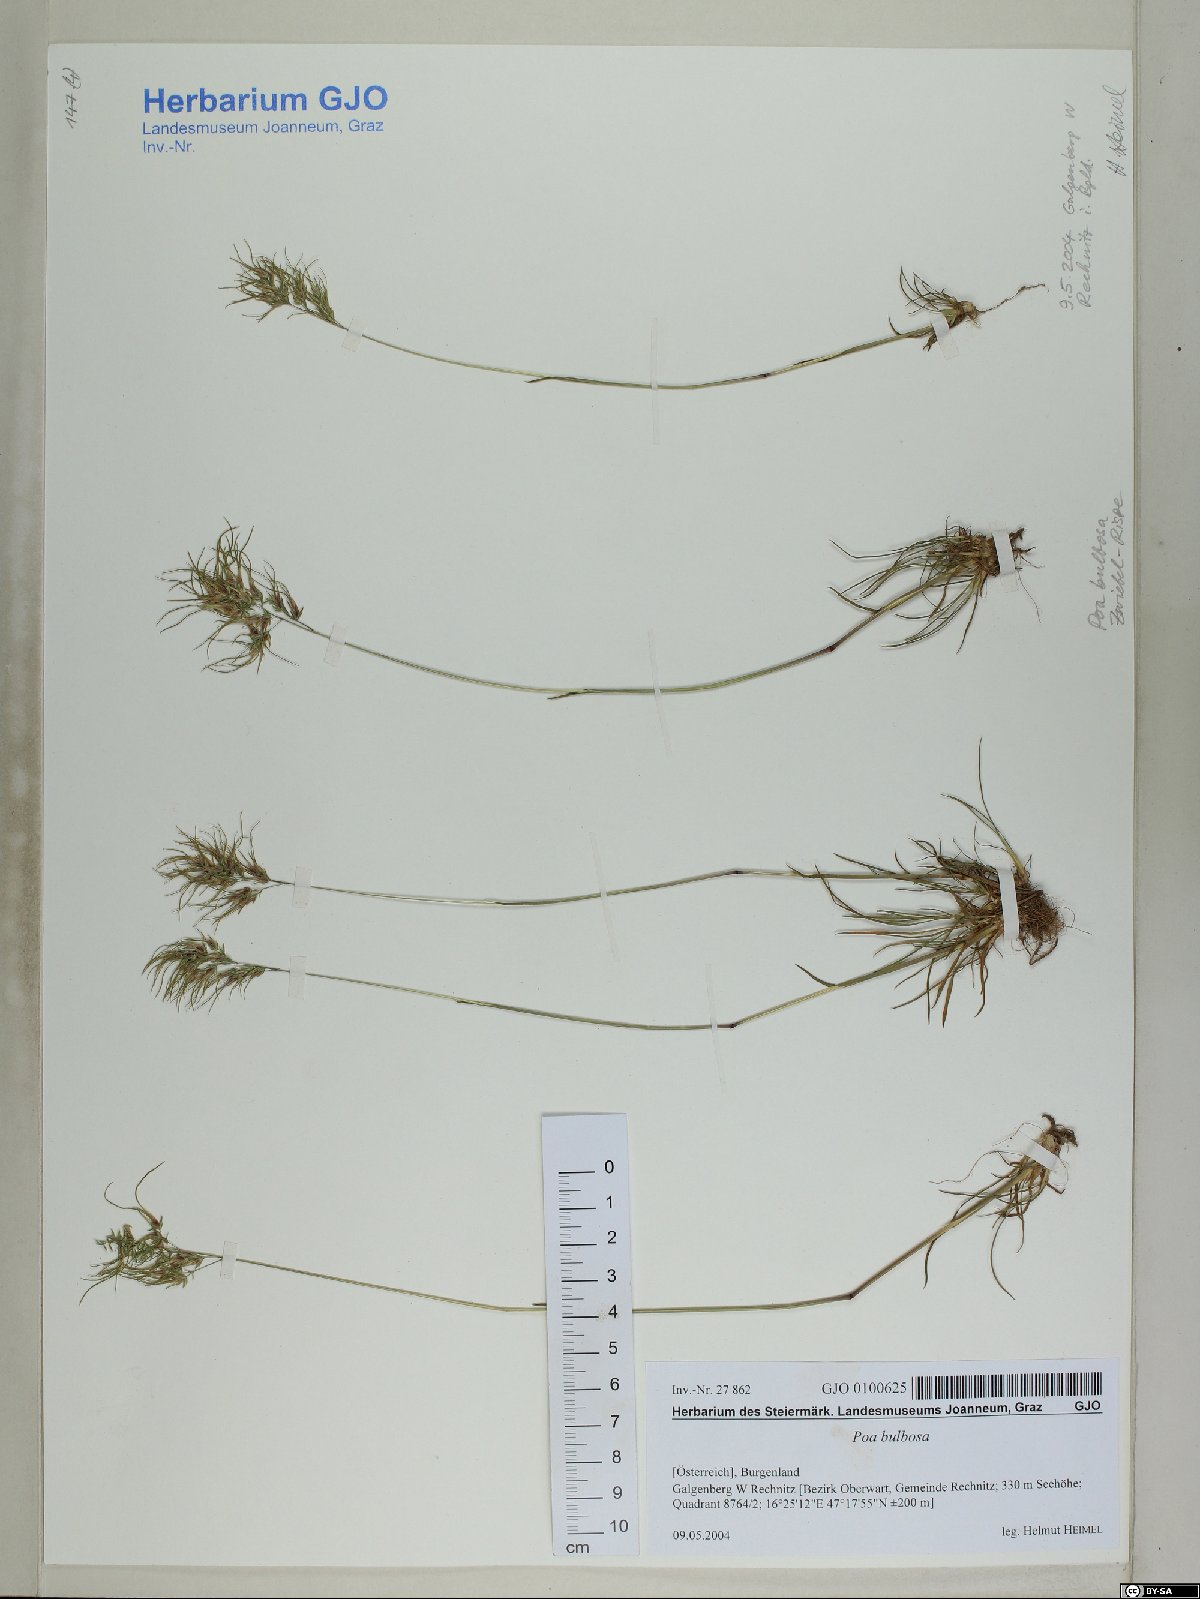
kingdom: Plantae
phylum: Tracheophyta
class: Liliopsida
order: Poales
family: Poaceae
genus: Poa
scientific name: Poa bulbosa
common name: Bulbous bluegrass
